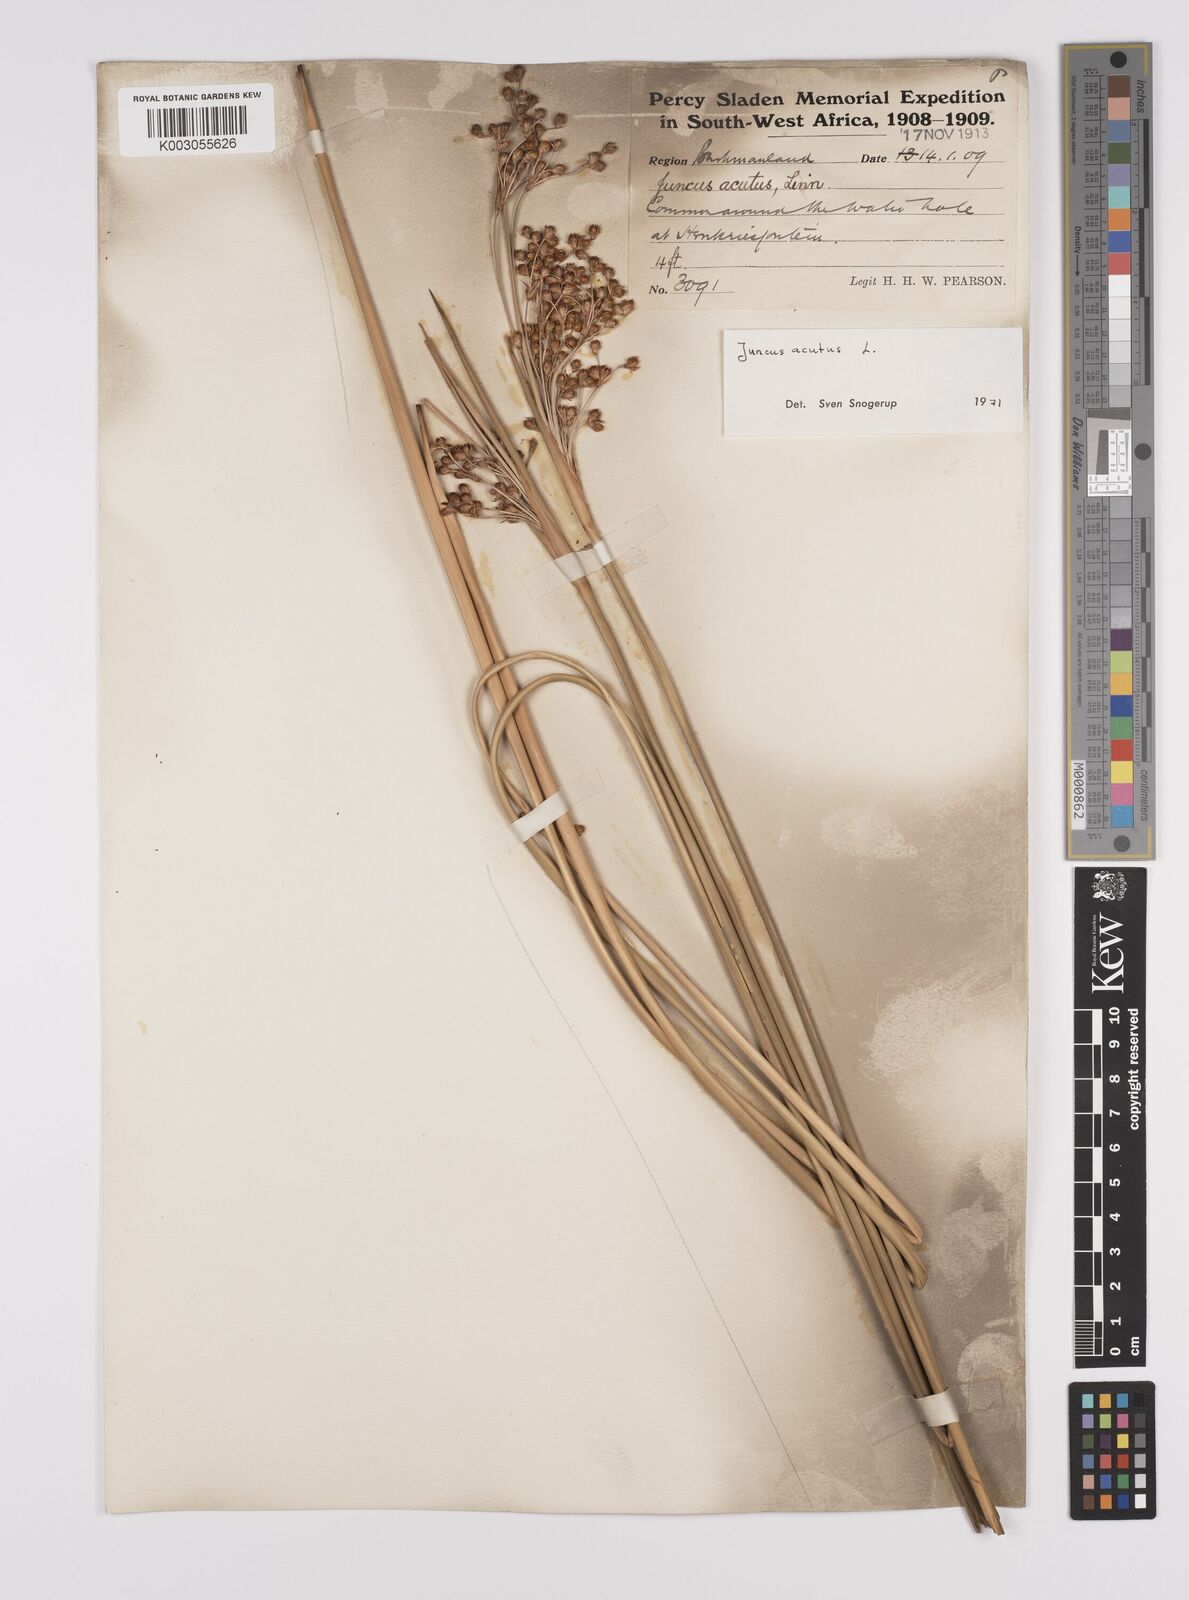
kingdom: Plantae
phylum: Tracheophyta
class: Liliopsida
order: Poales
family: Juncaceae
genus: Juncus
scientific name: Juncus acutus
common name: Sharp rush
